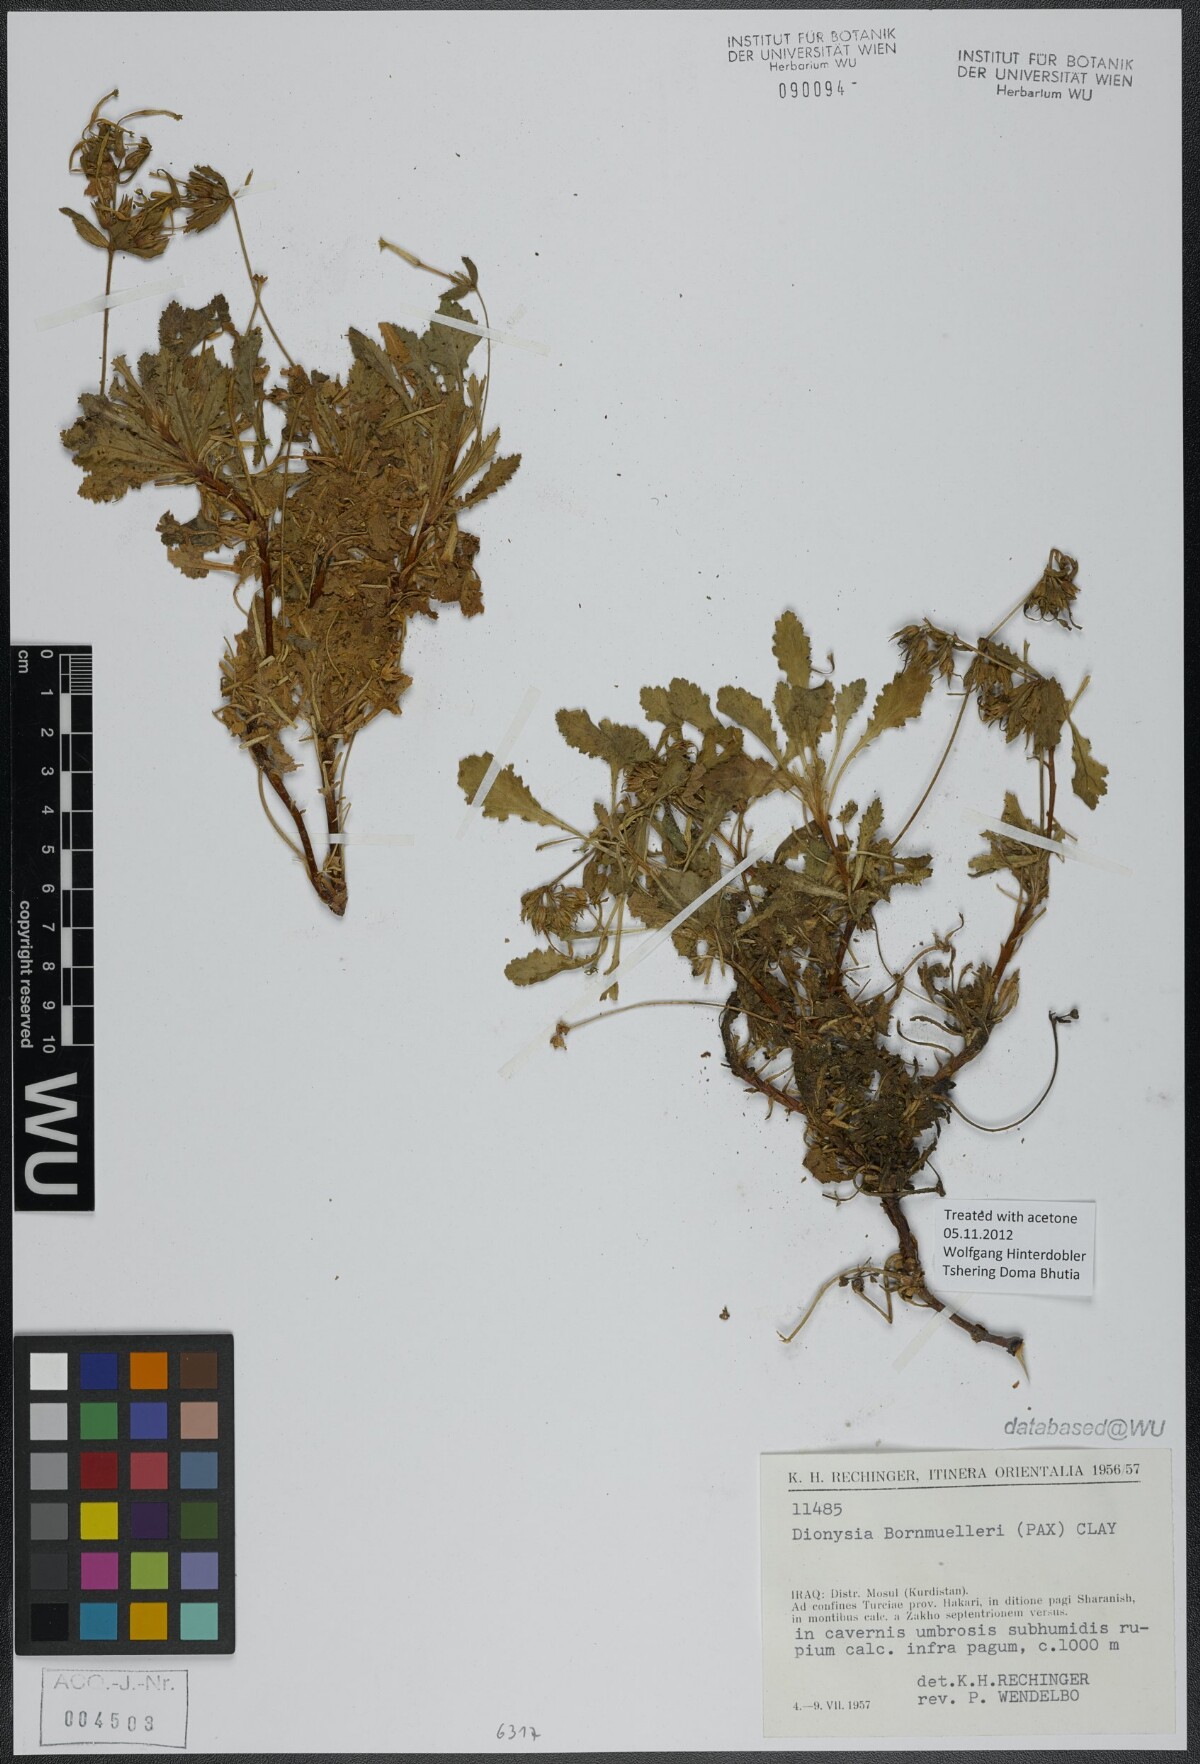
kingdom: Plantae
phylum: Tracheophyta
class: Magnoliopsida
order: Ericales
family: Primulaceae
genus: Dionysia
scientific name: Dionysia bornmuelleri
